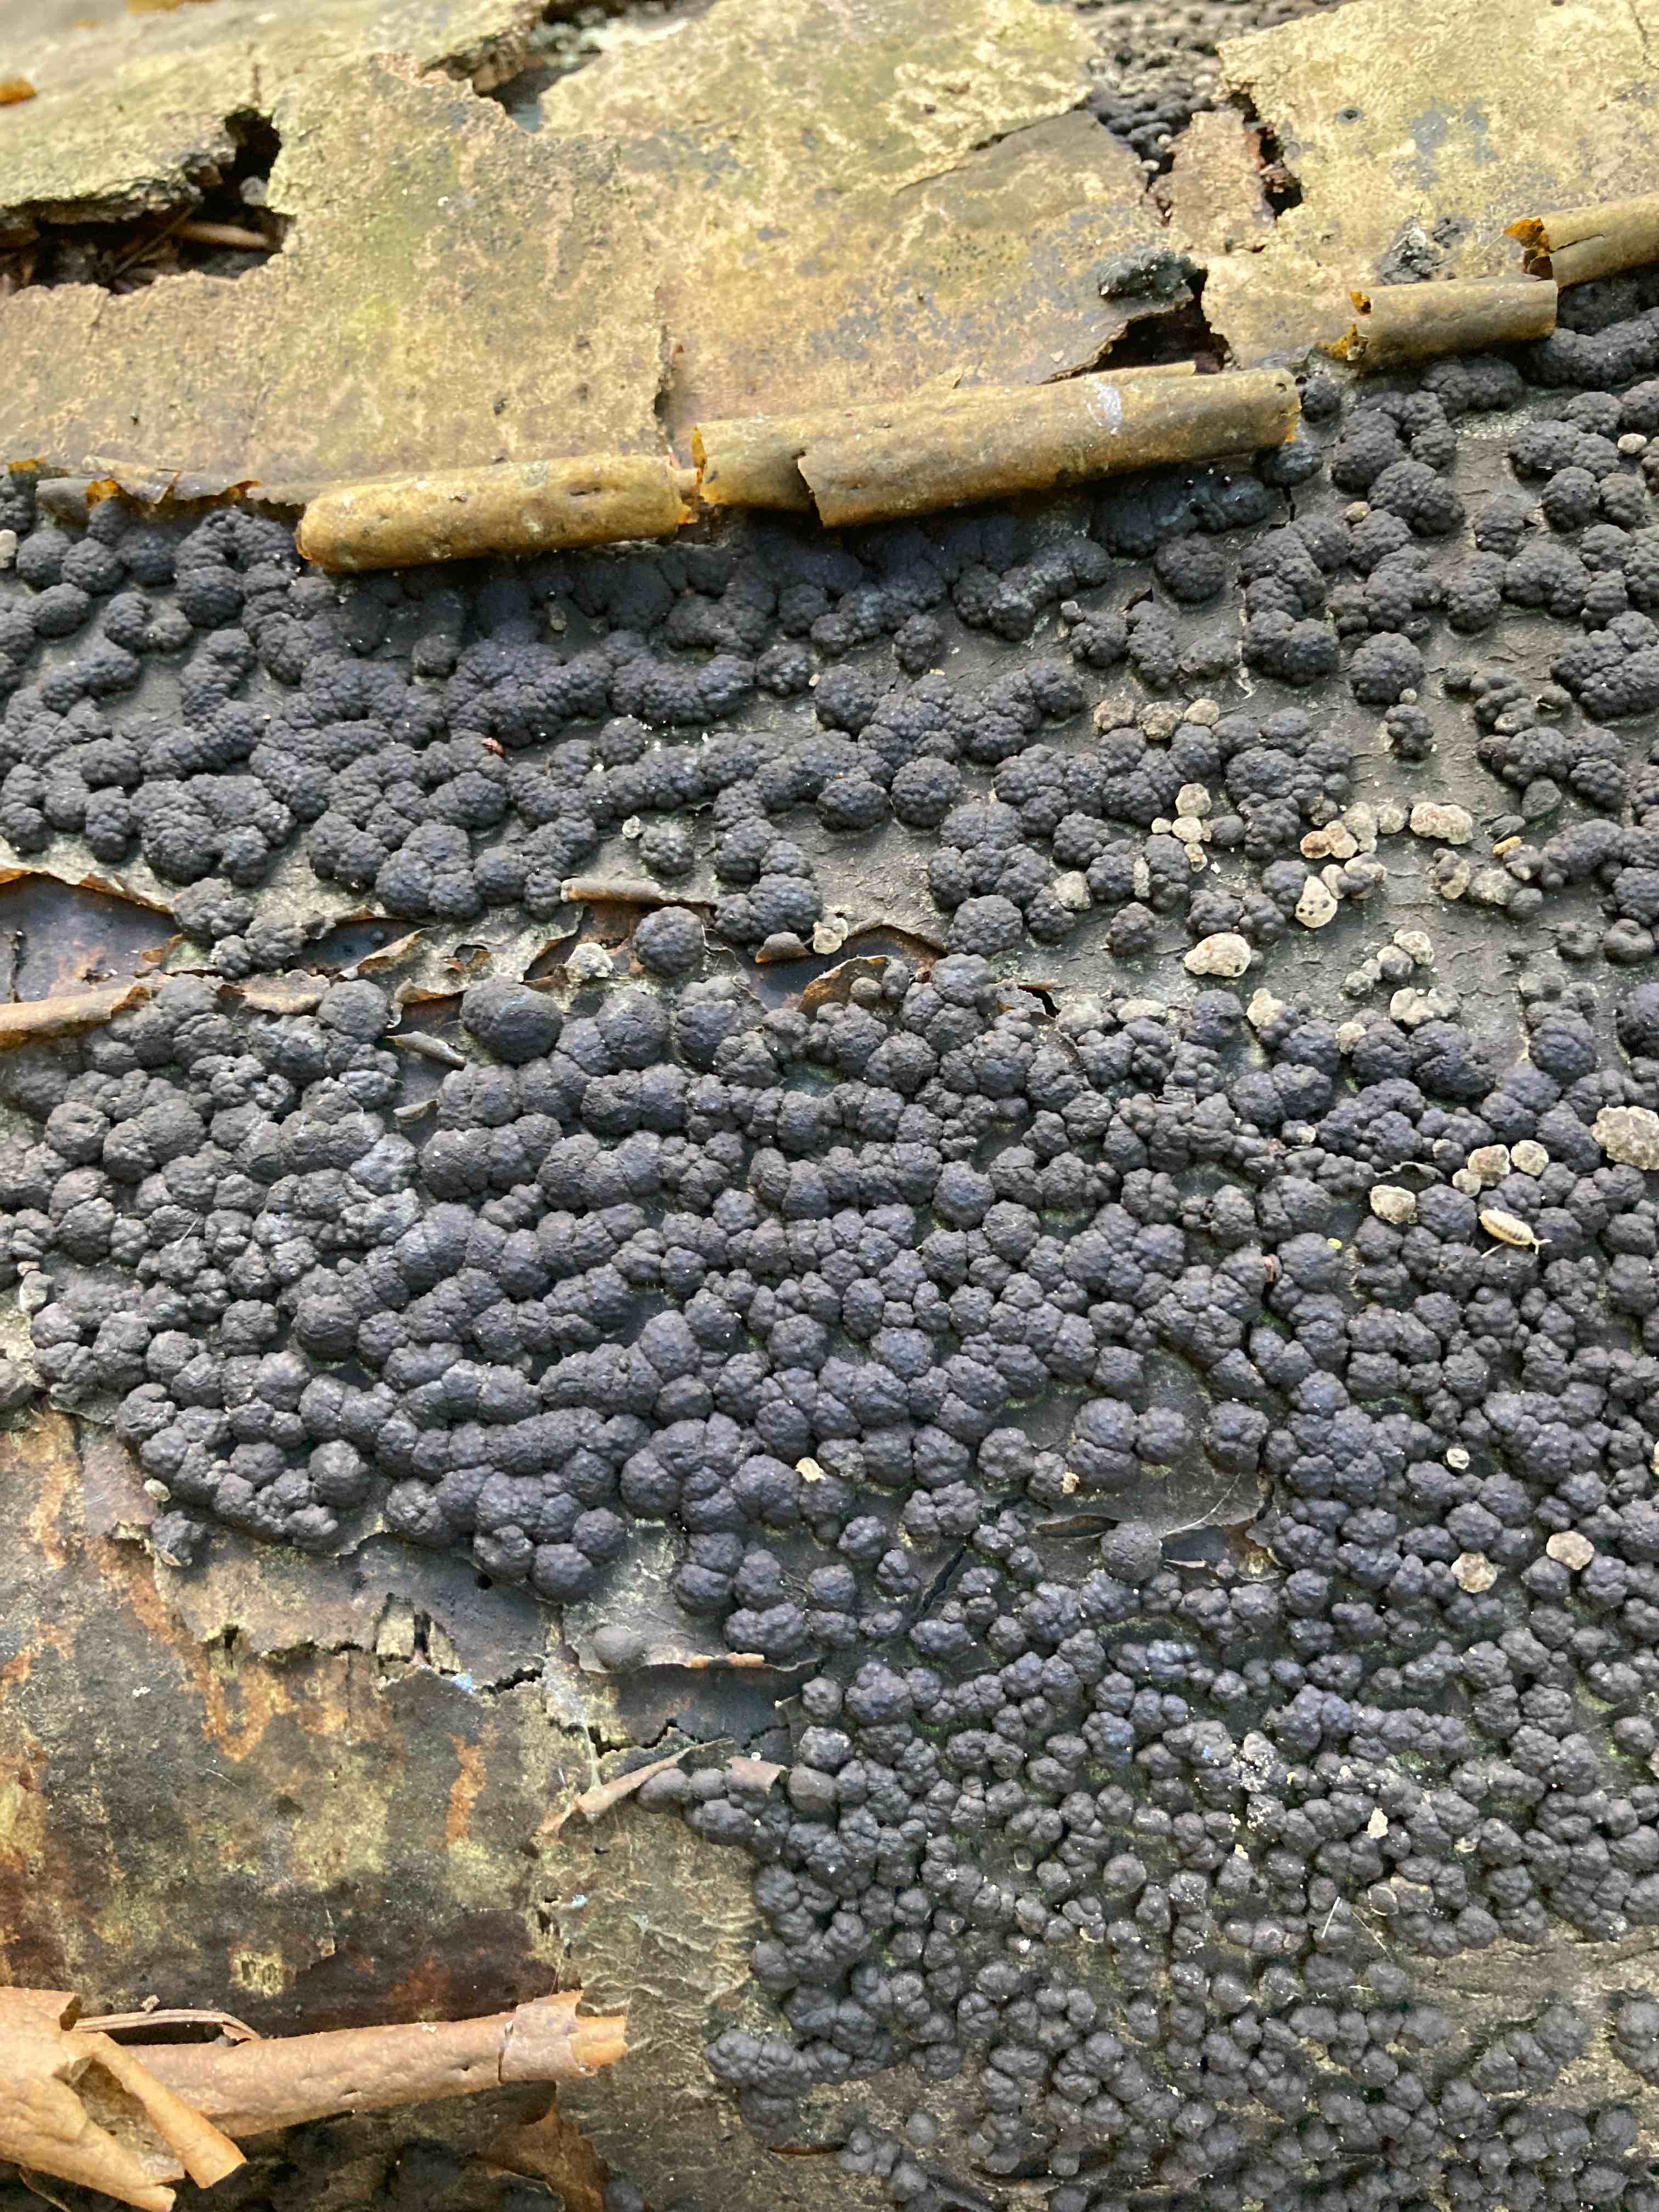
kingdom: Fungi
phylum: Ascomycota
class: Sordariomycetes
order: Xylariales
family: Hypoxylaceae
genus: Jackrogersella
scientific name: Jackrogersella cohaerens
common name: sammenflydende kulbær
